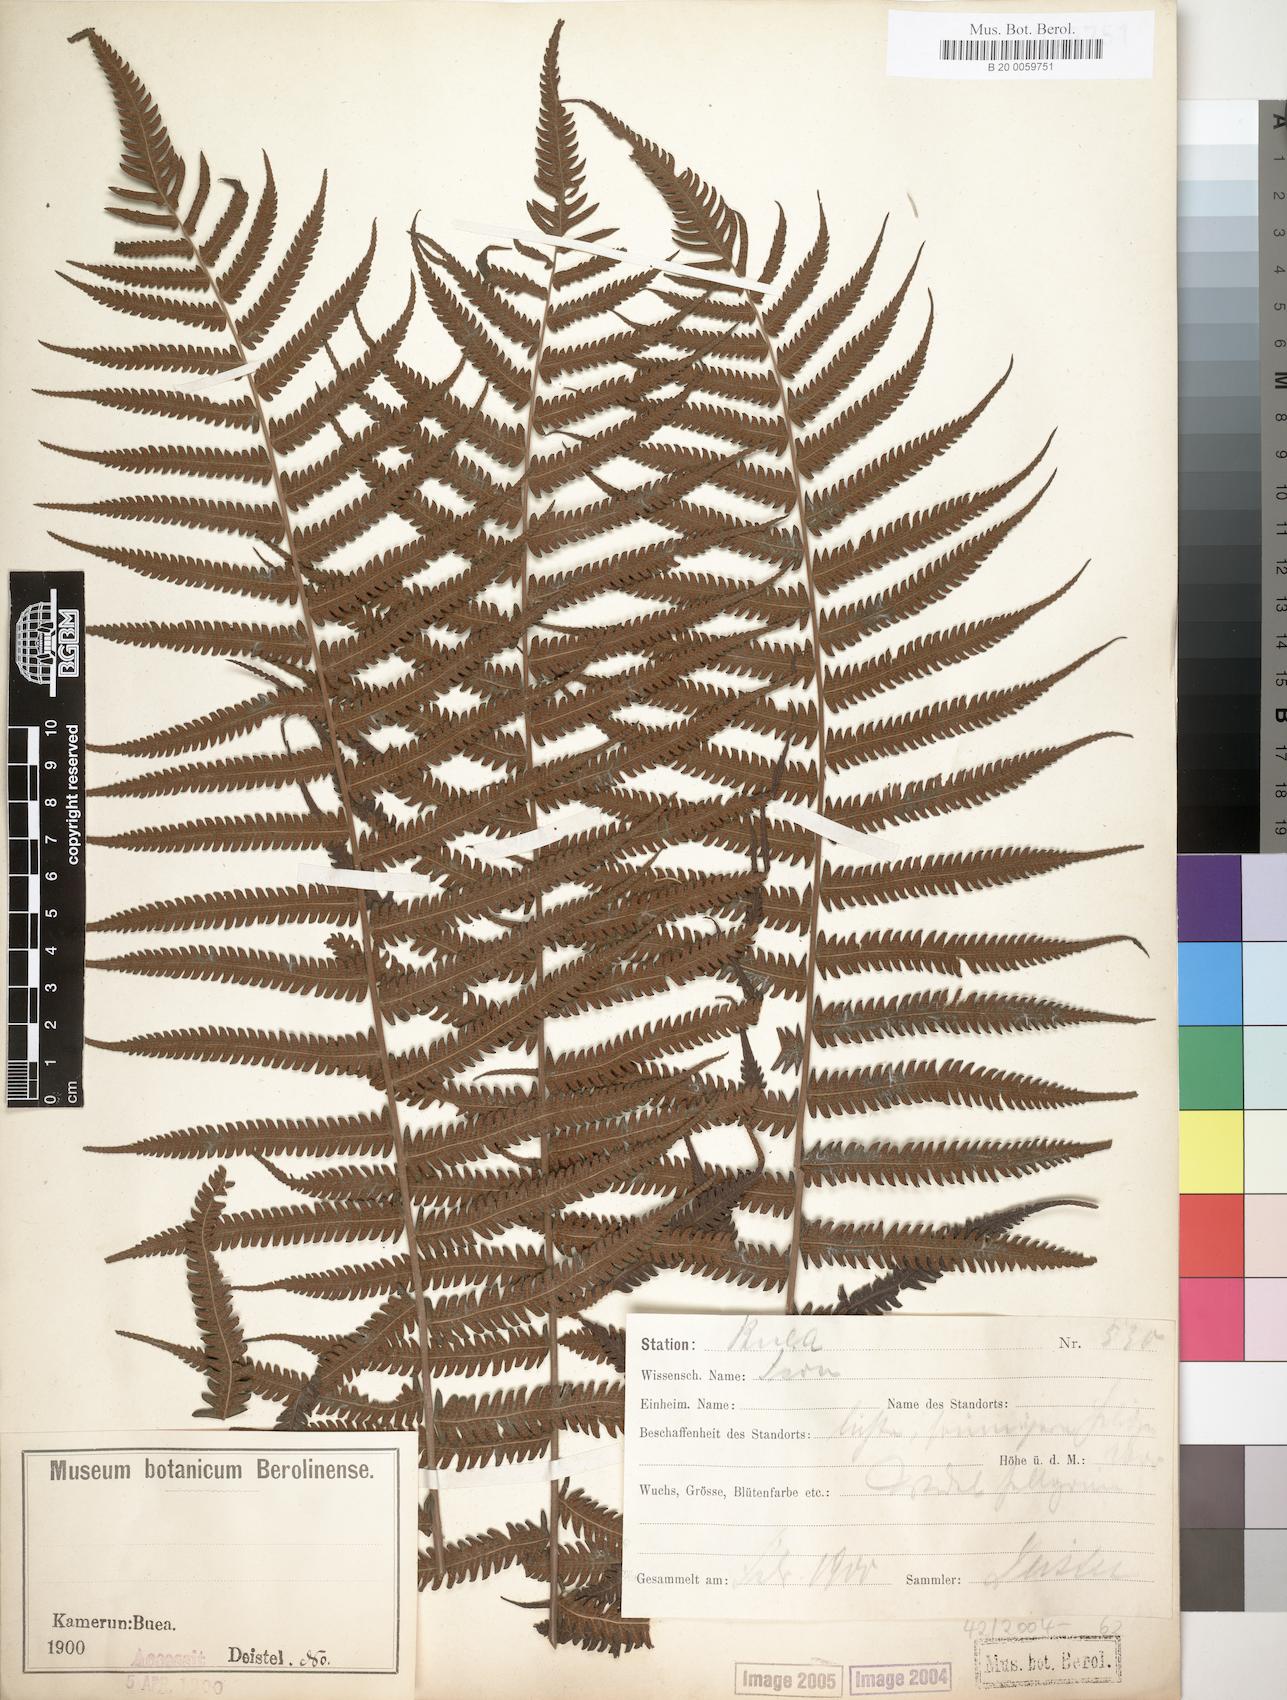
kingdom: Plantae
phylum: Tracheophyta
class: Polypodiopsida
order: Polypodiales
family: Thelypteridaceae
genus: Christella
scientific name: Christella dentata
